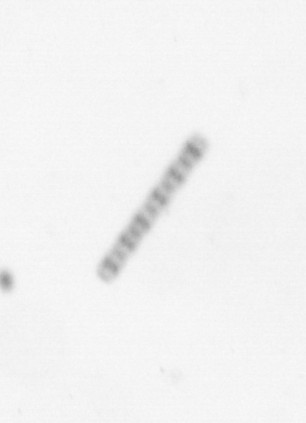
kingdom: Chromista
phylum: Ochrophyta
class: Bacillariophyceae
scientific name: Bacillariophyceae
